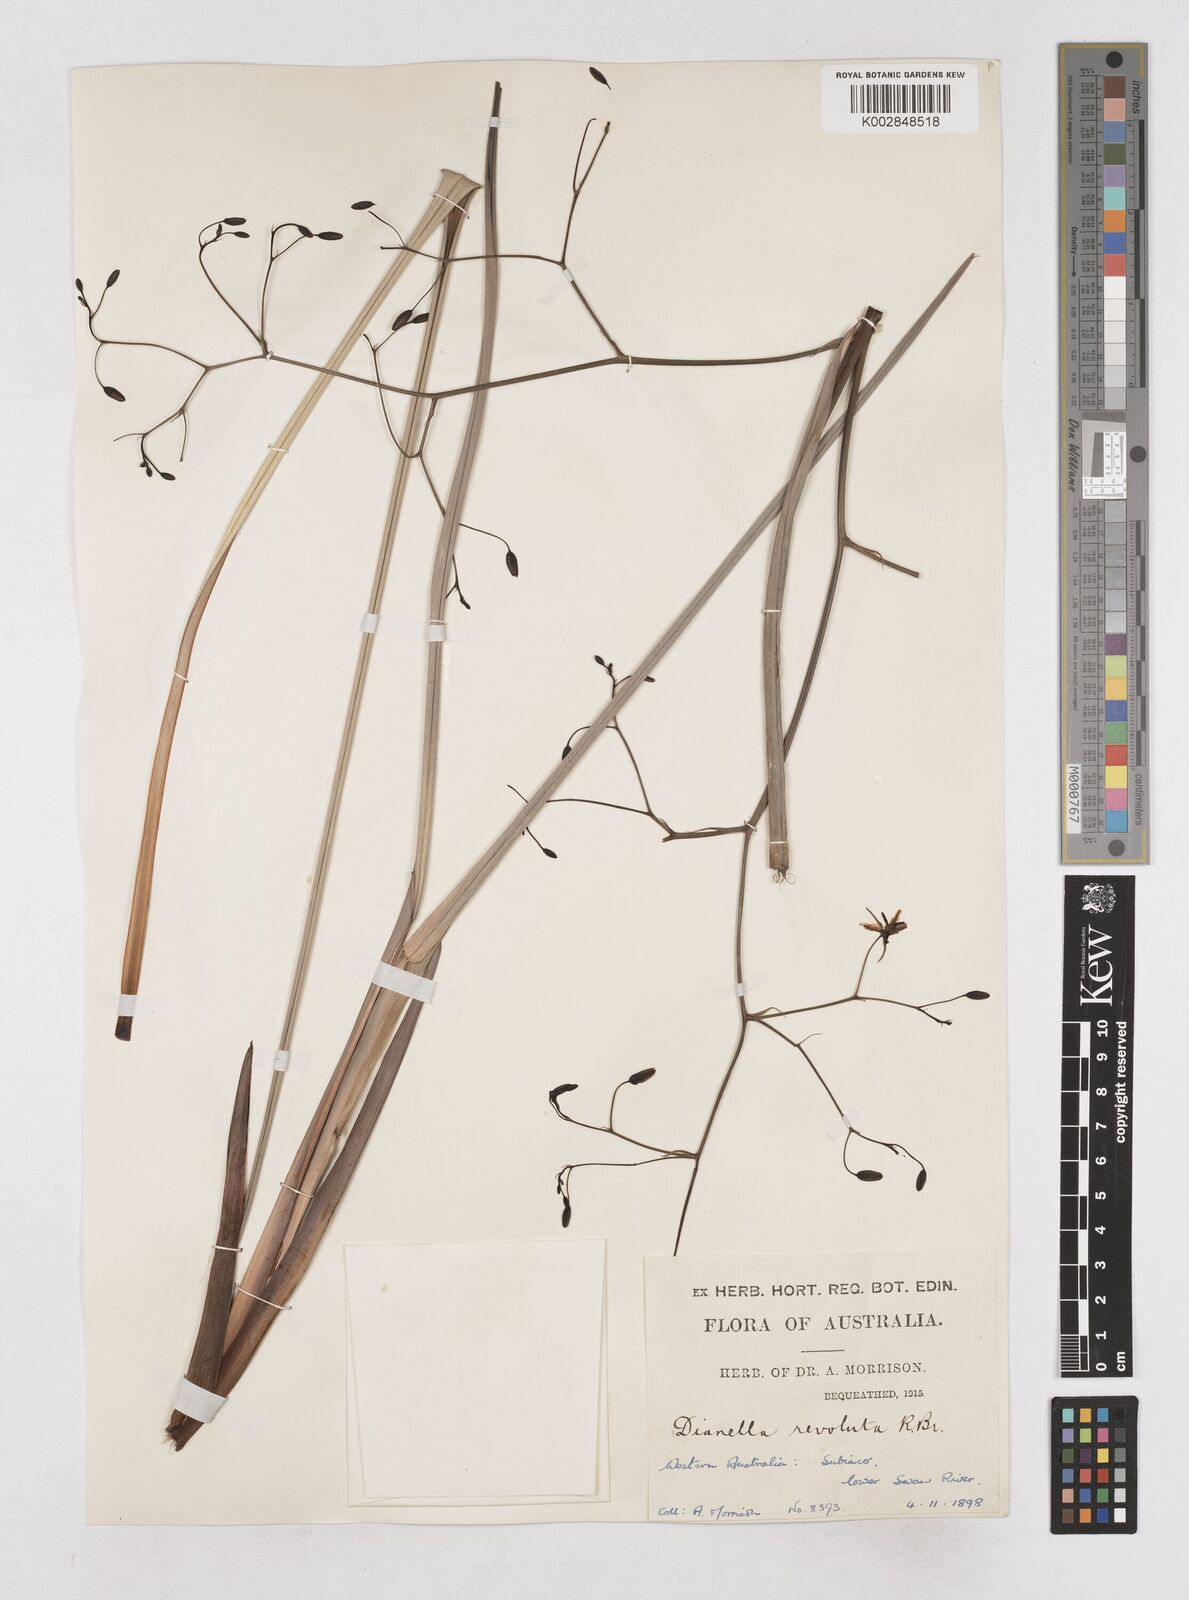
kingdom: Plantae
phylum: Tracheophyta
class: Liliopsida
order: Asparagales
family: Asphodelaceae
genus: Dianella
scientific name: Dianella revoluta
